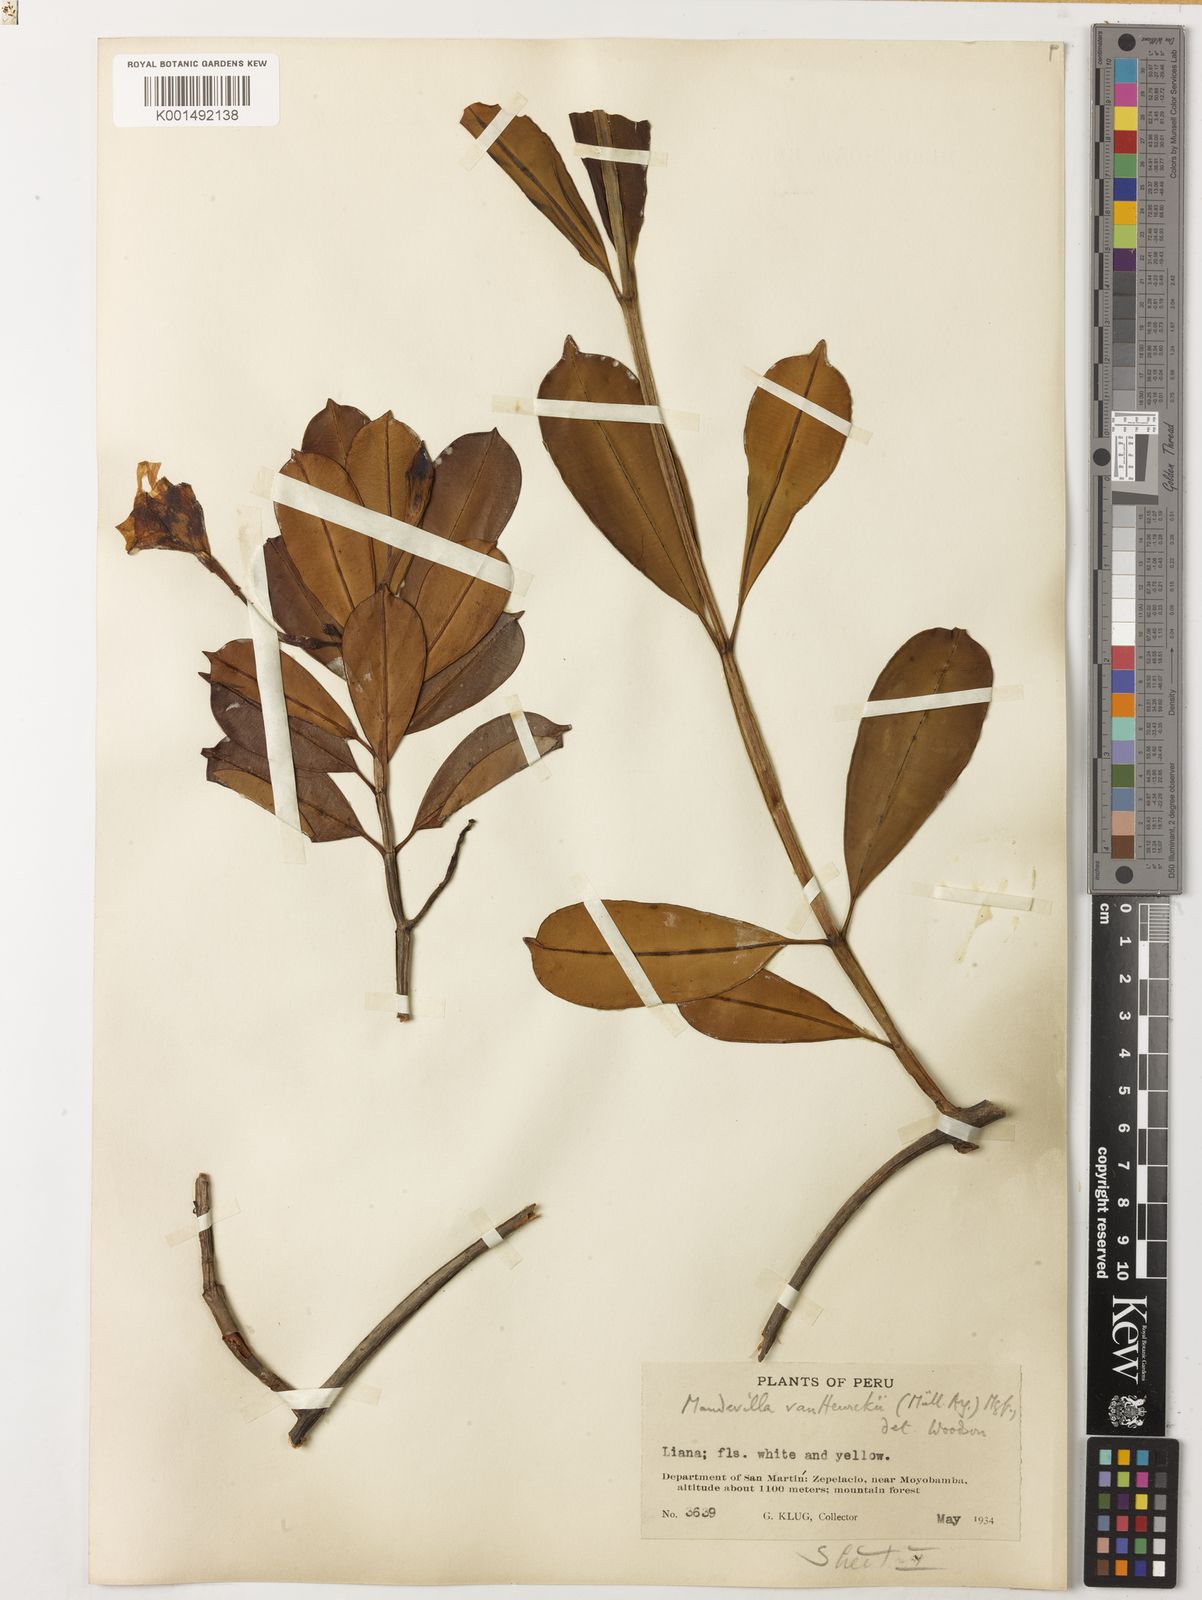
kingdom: Plantae
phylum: Tracheophyta
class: Magnoliopsida
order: Gentianales
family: Apocynaceae
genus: Mandevilla
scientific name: Mandevilla vanheurckii
